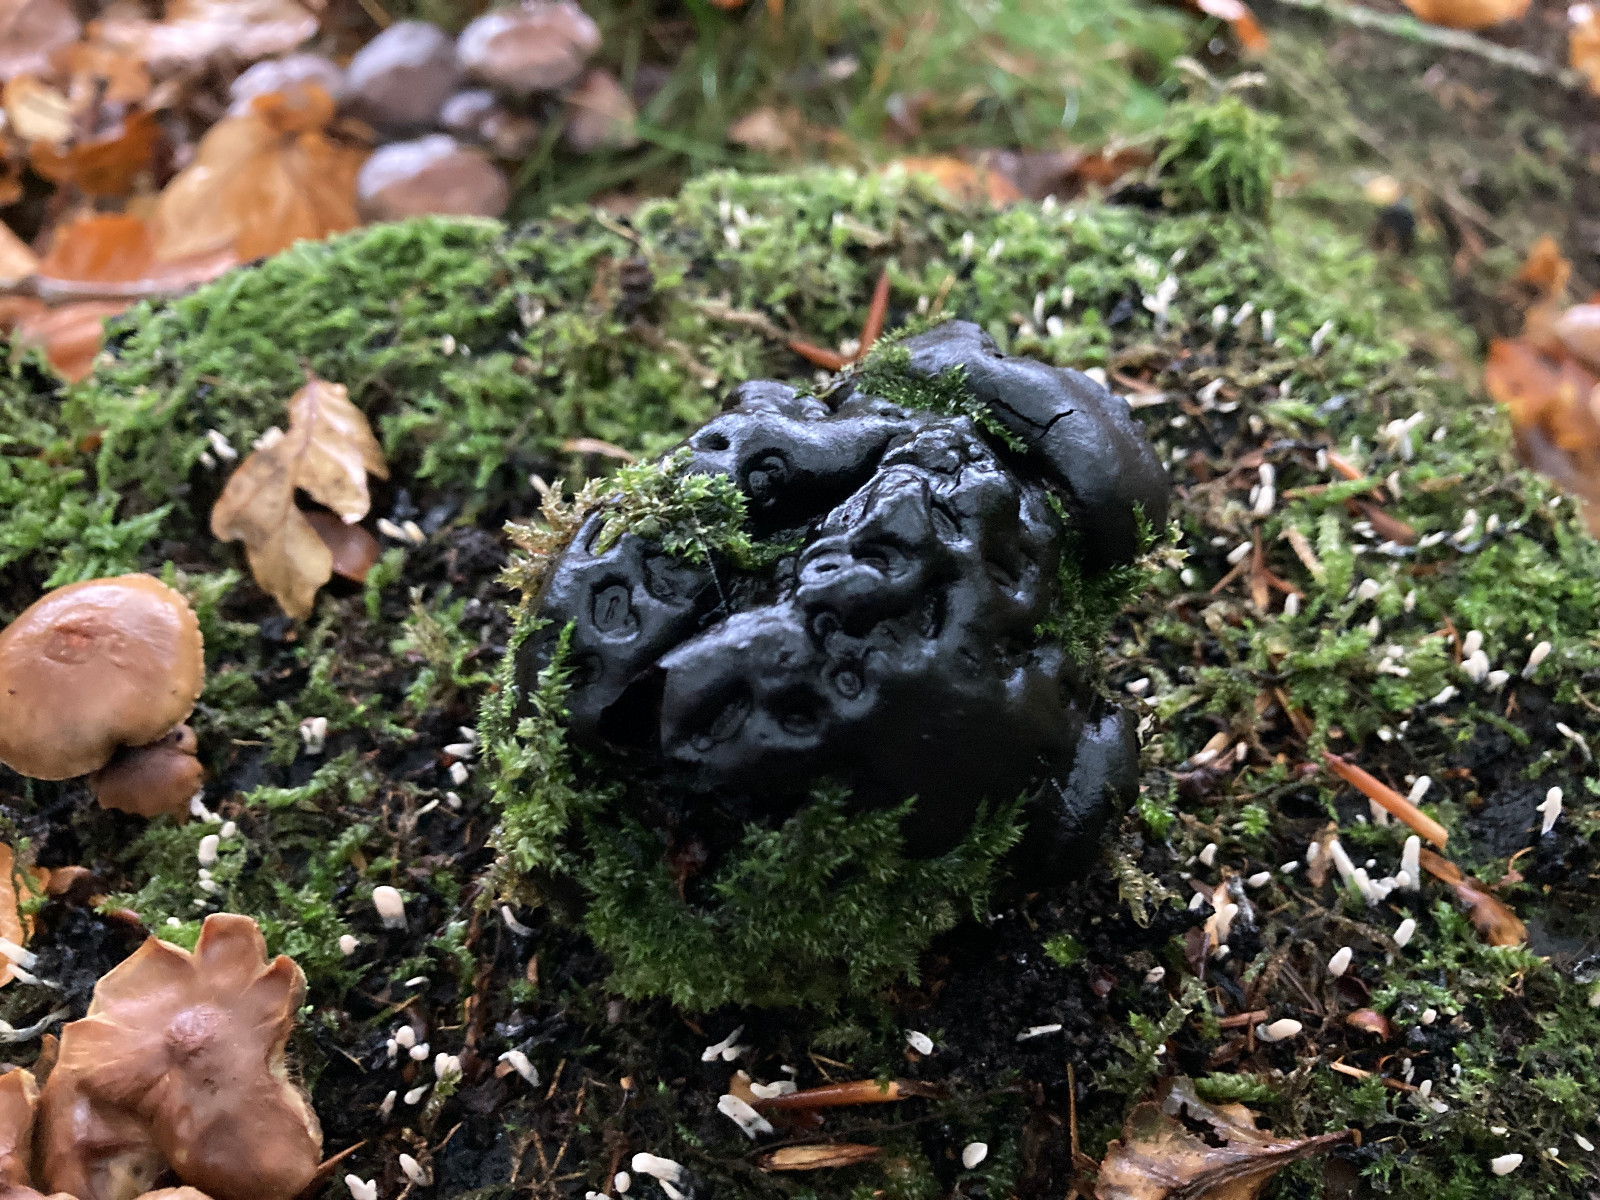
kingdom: Fungi
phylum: Basidiomycota
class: Agaricomycetes
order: Polyporales
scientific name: Polyporales
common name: poresvampordenen
